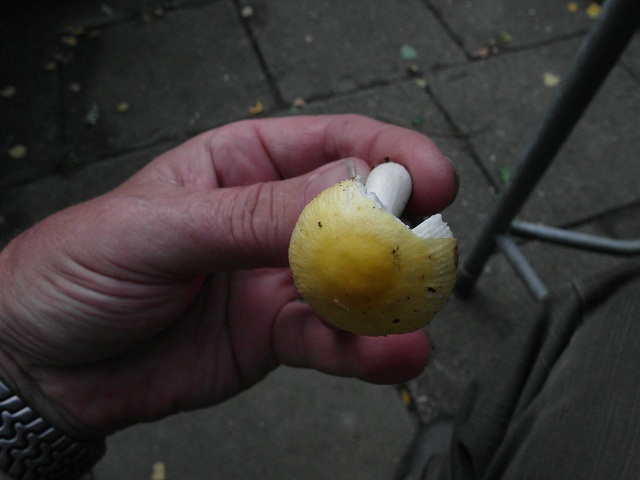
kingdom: Fungi
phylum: Basidiomycota
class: Agaricomycetes
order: Russulales
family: Russulaceae
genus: Russula
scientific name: Russula solaris
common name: sol-skørhat
